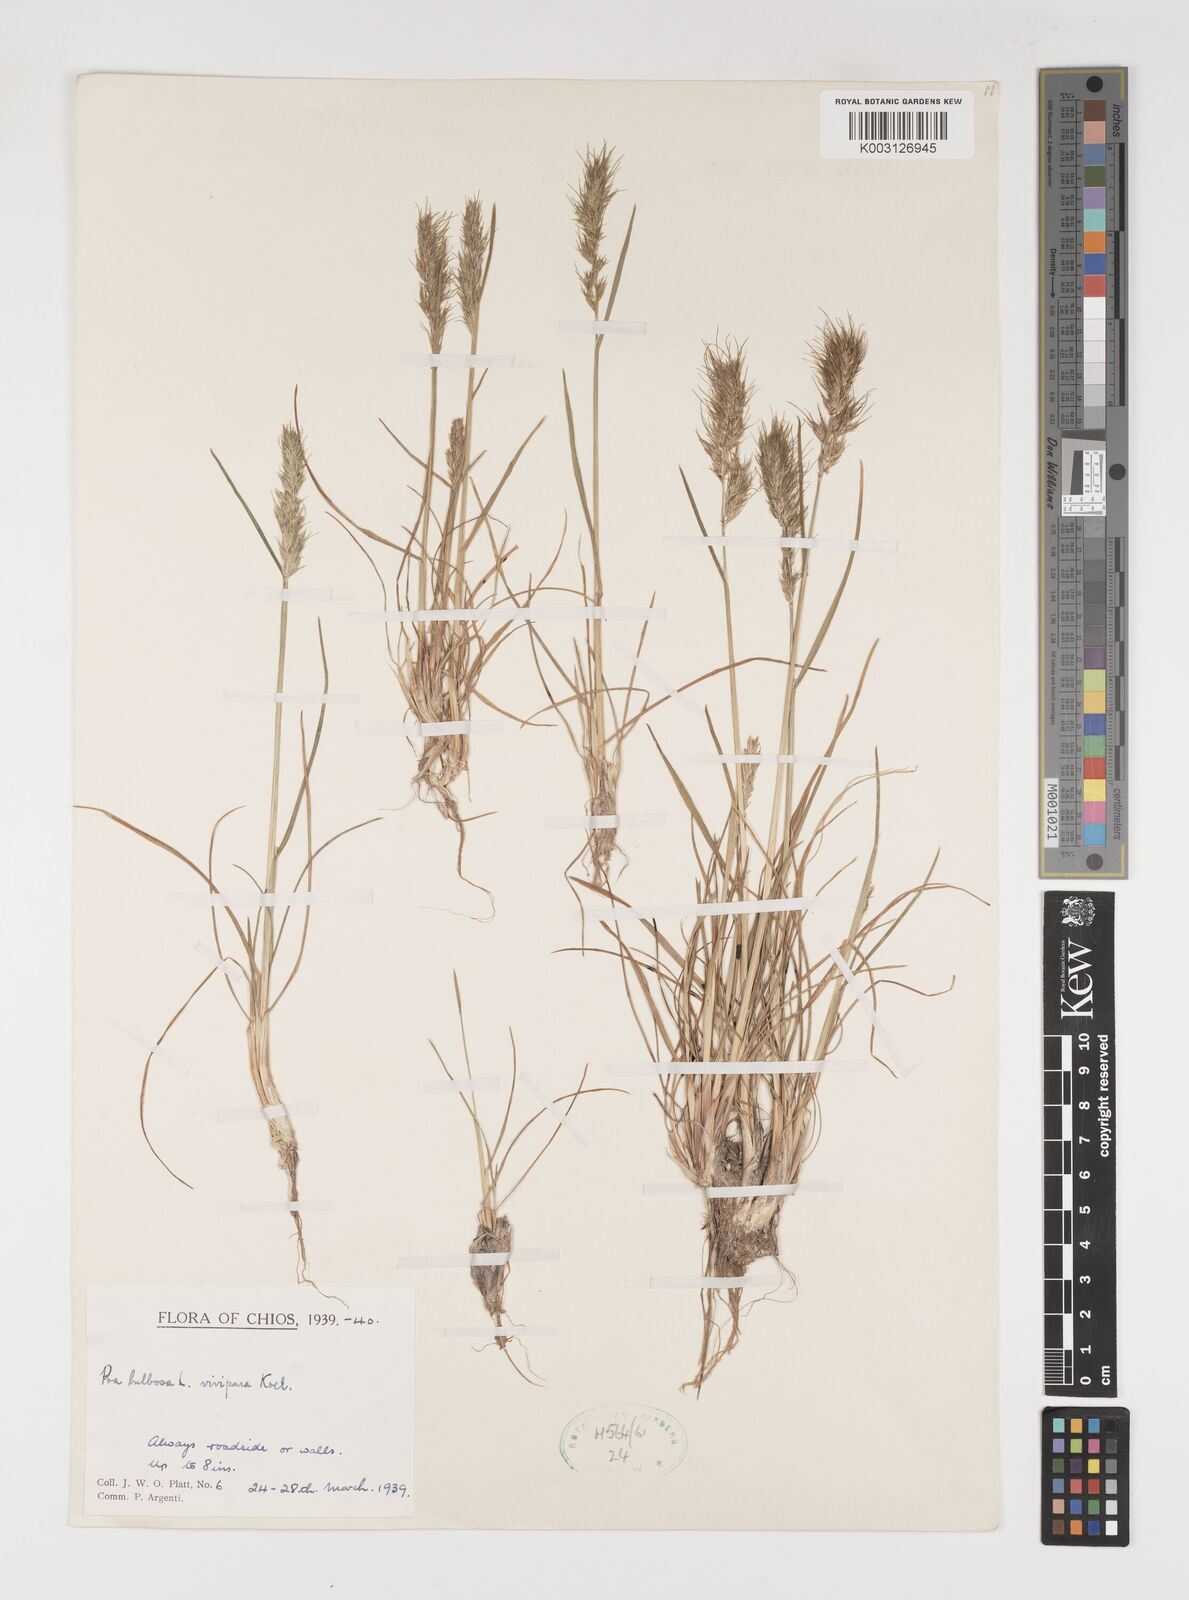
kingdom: Plantae
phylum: Tracheophyta
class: Liliopsida
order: Poales
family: Poaceae
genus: Poa
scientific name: Poa bulbosa
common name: Bulbous bluegrass
